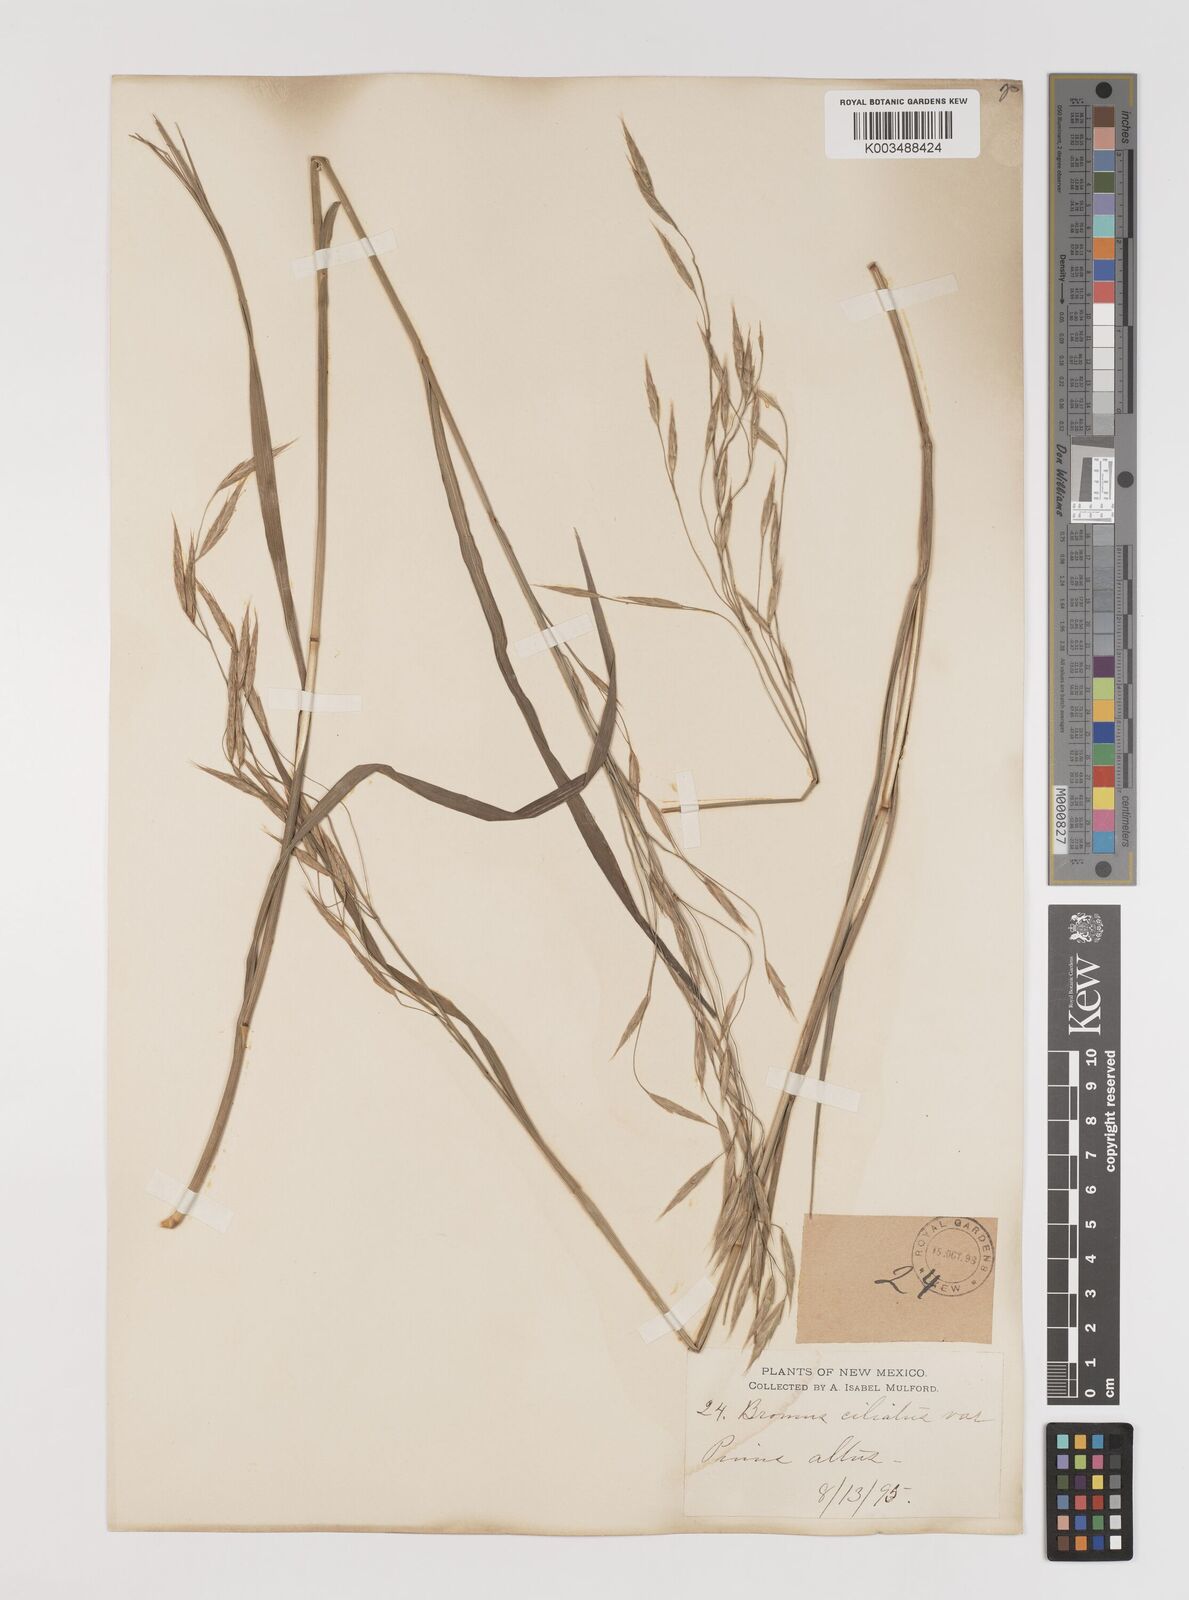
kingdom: Plantae
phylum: Tracheophyta
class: Liliopsida
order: Poales
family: Poaceae
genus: Bromus
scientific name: Bromus ciliatus
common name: Fringe brome
